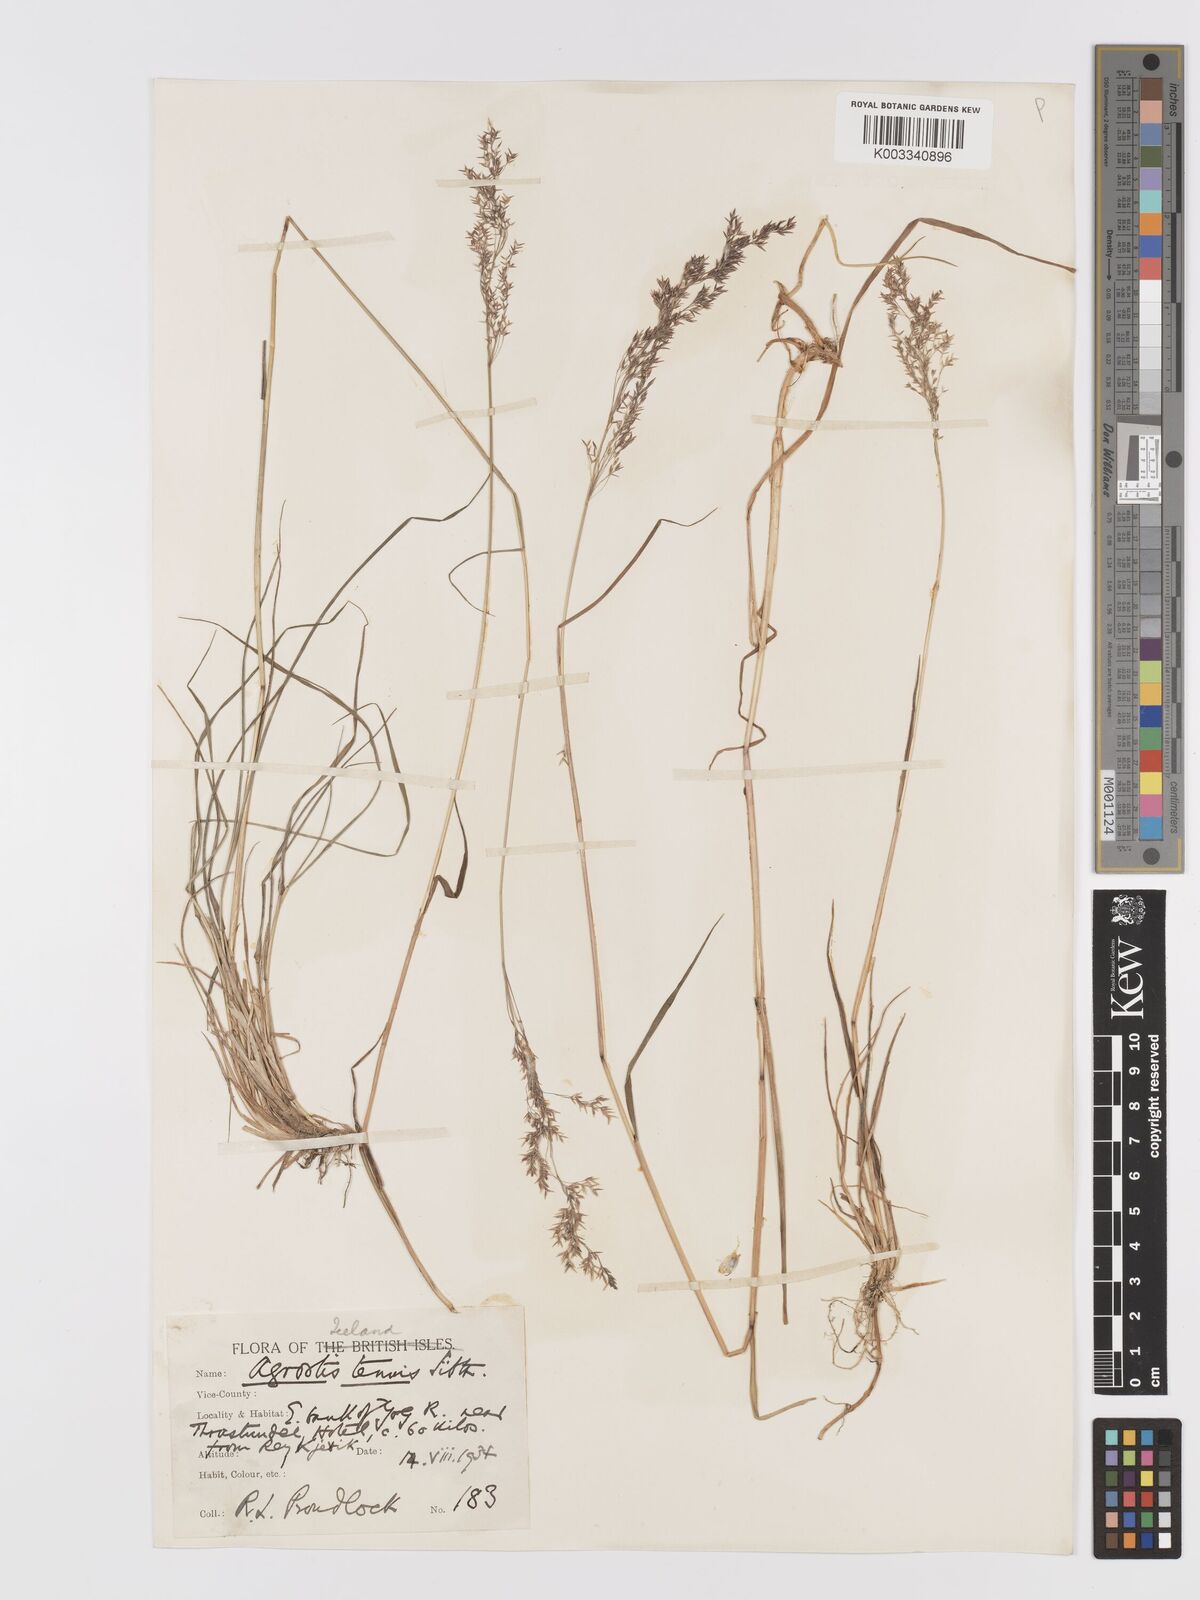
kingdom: Plantae
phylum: Tracheophyta
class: Liliopsida
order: Poales
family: Poaceae
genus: Agrostis
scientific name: Agrostis capillaris
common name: Colonial bentgrass
